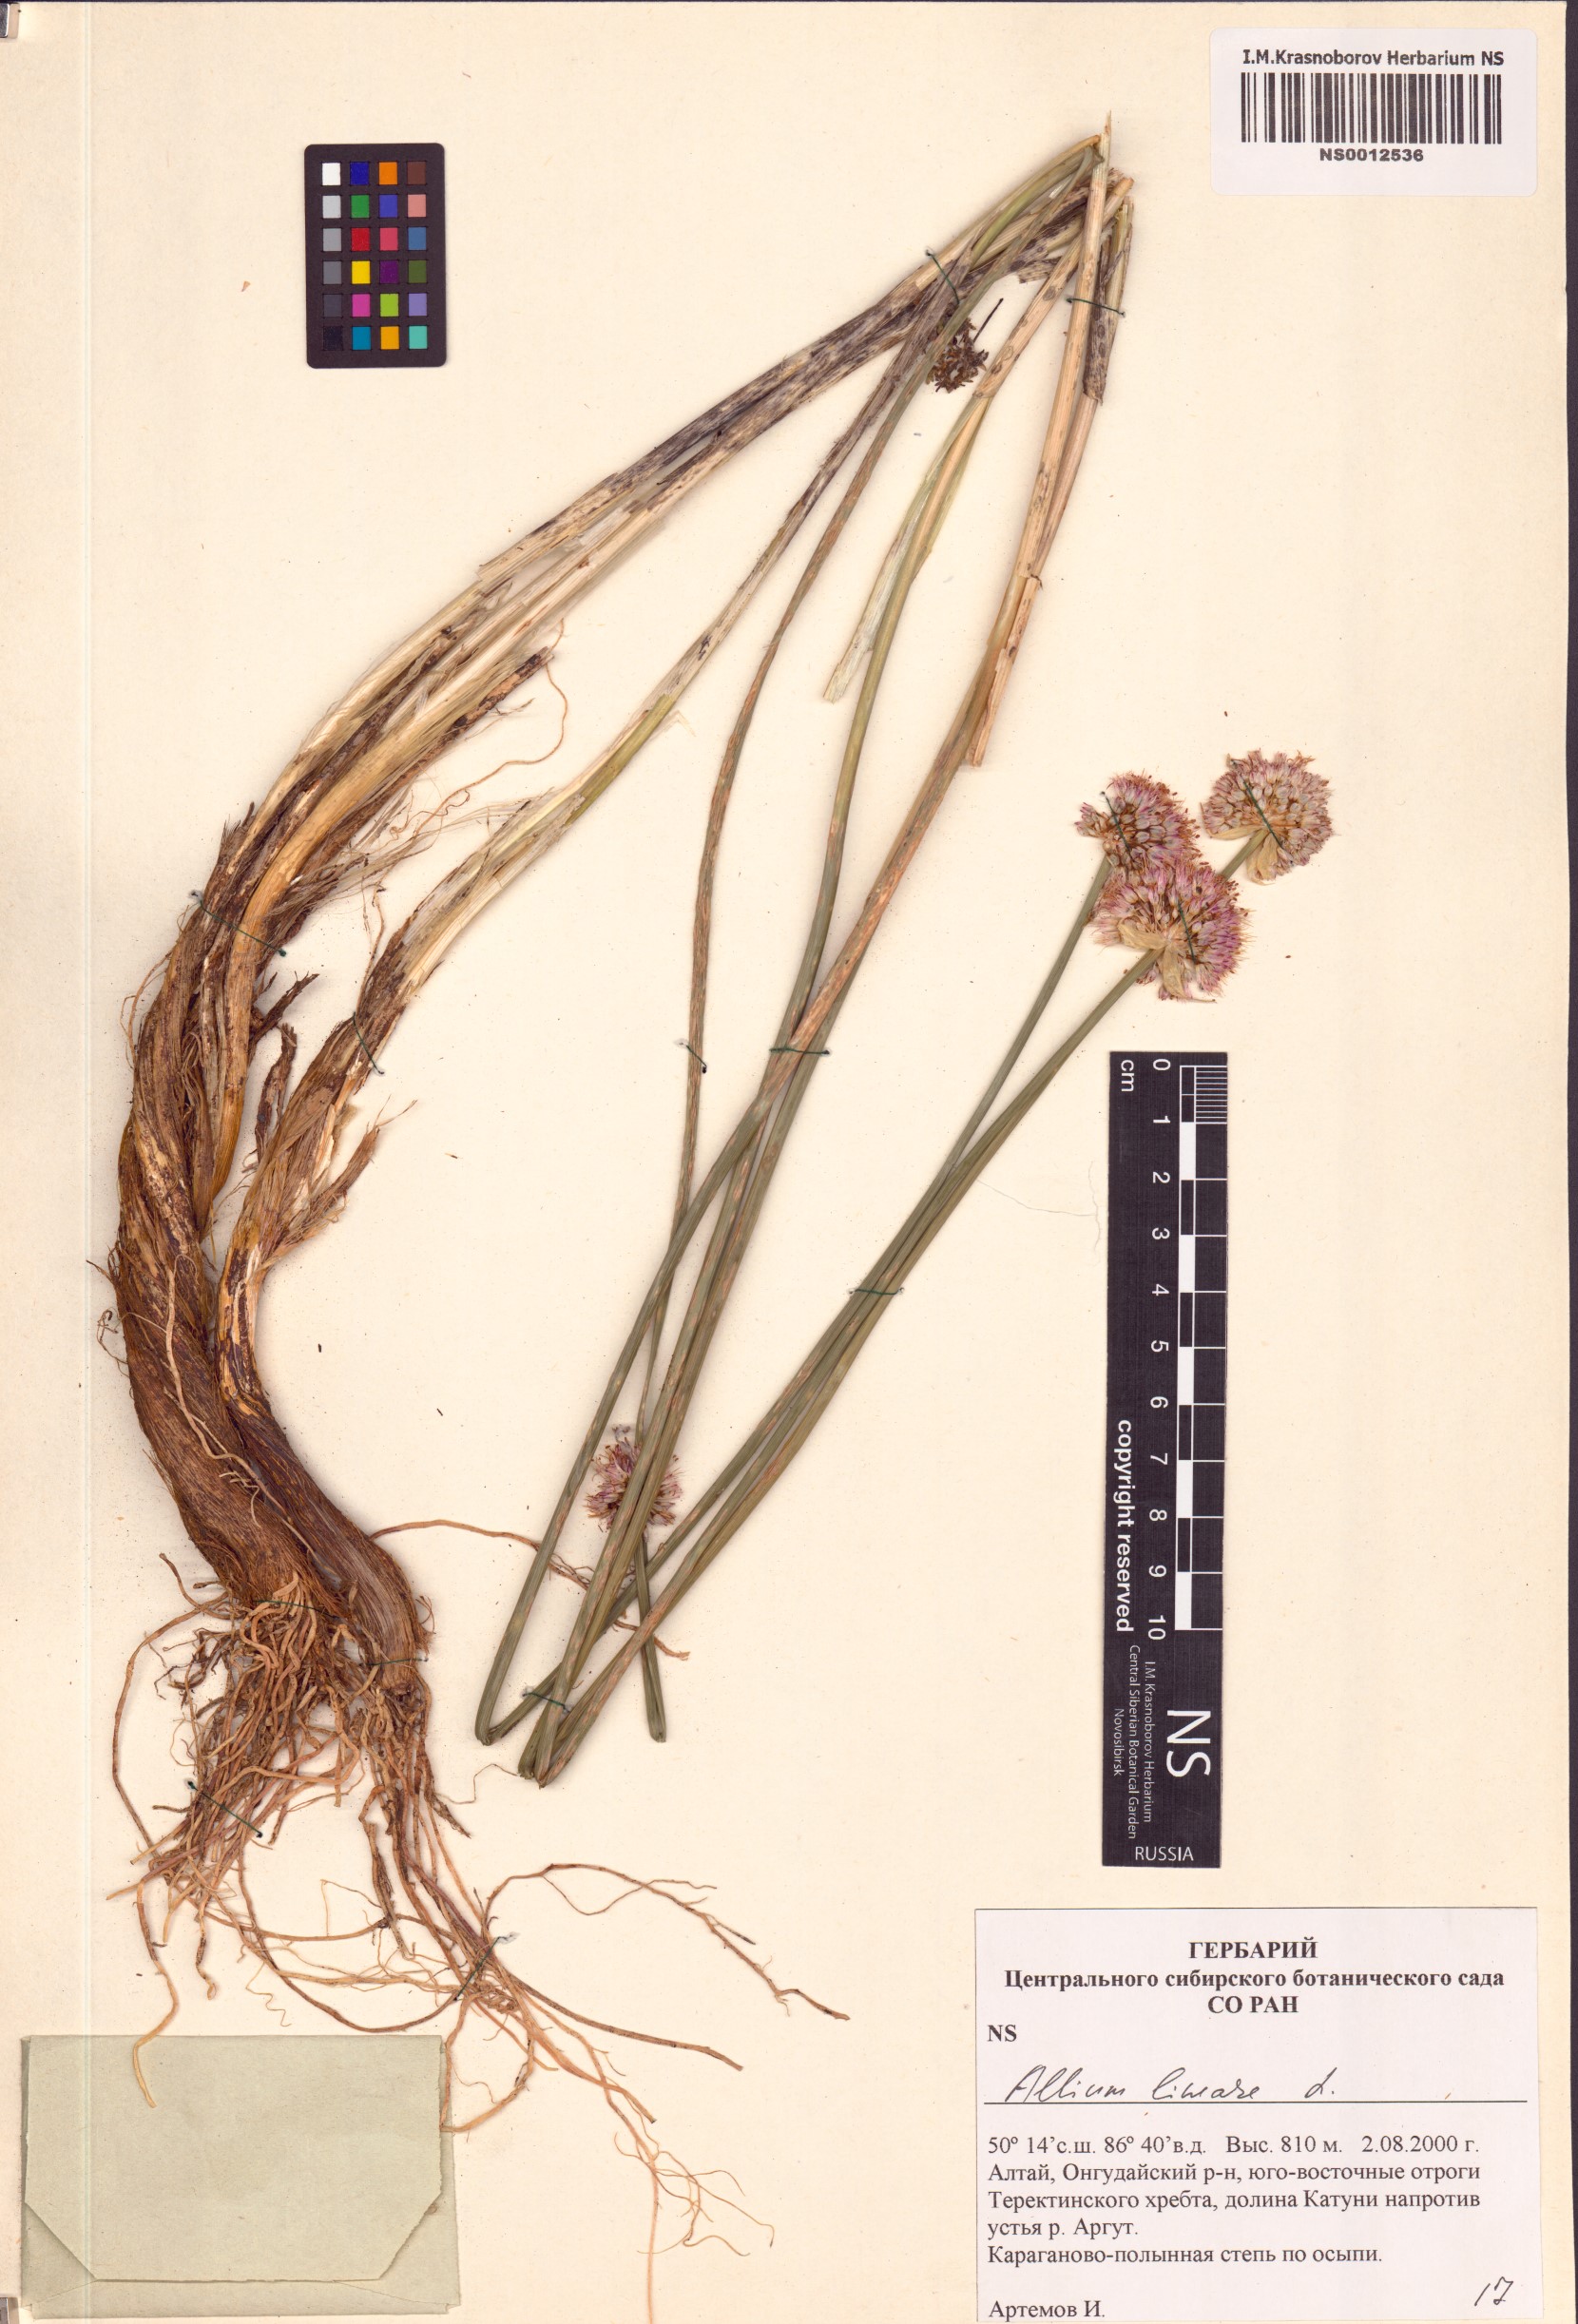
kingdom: Plantae
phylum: Tracheophyta
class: Liliopsida
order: Asparagales
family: Amaryllidaceae
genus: Allium
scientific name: Allium lineare
